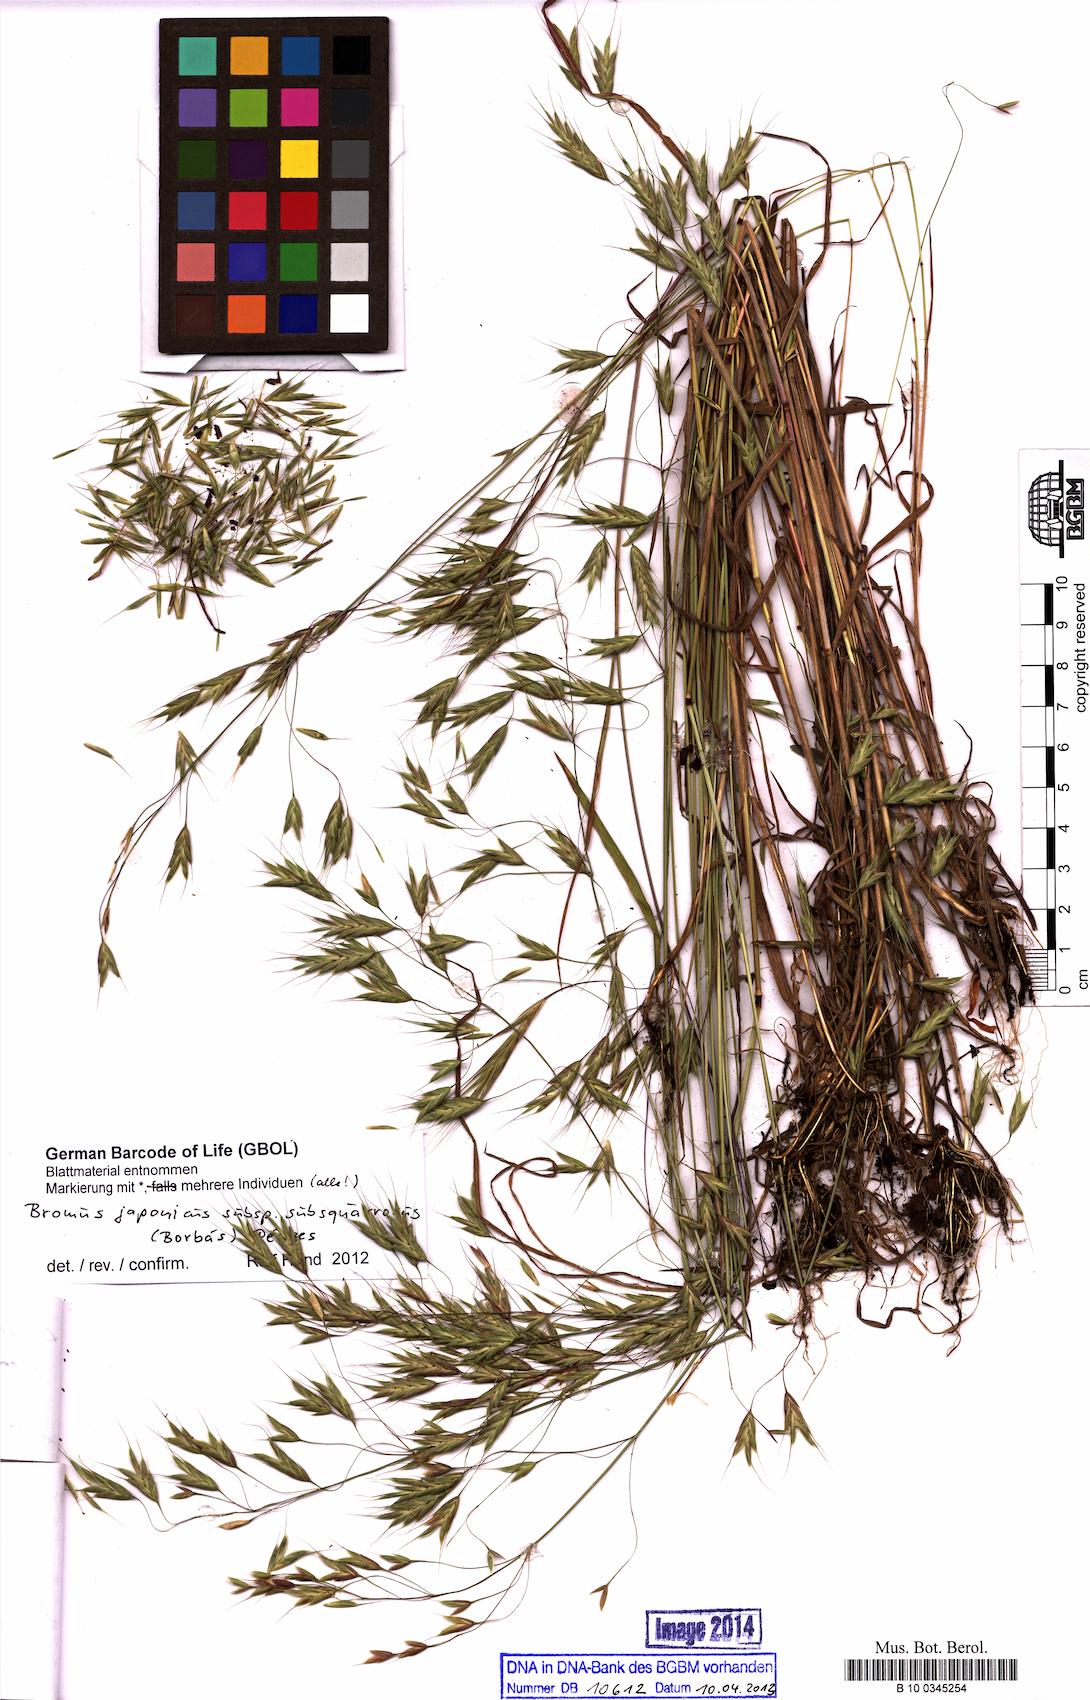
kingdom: Plantae
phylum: Tracheophyta
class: Liliopsida
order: Poales
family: Poaceae
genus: Bromus
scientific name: Bromus japonicus
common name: Japanese brome
